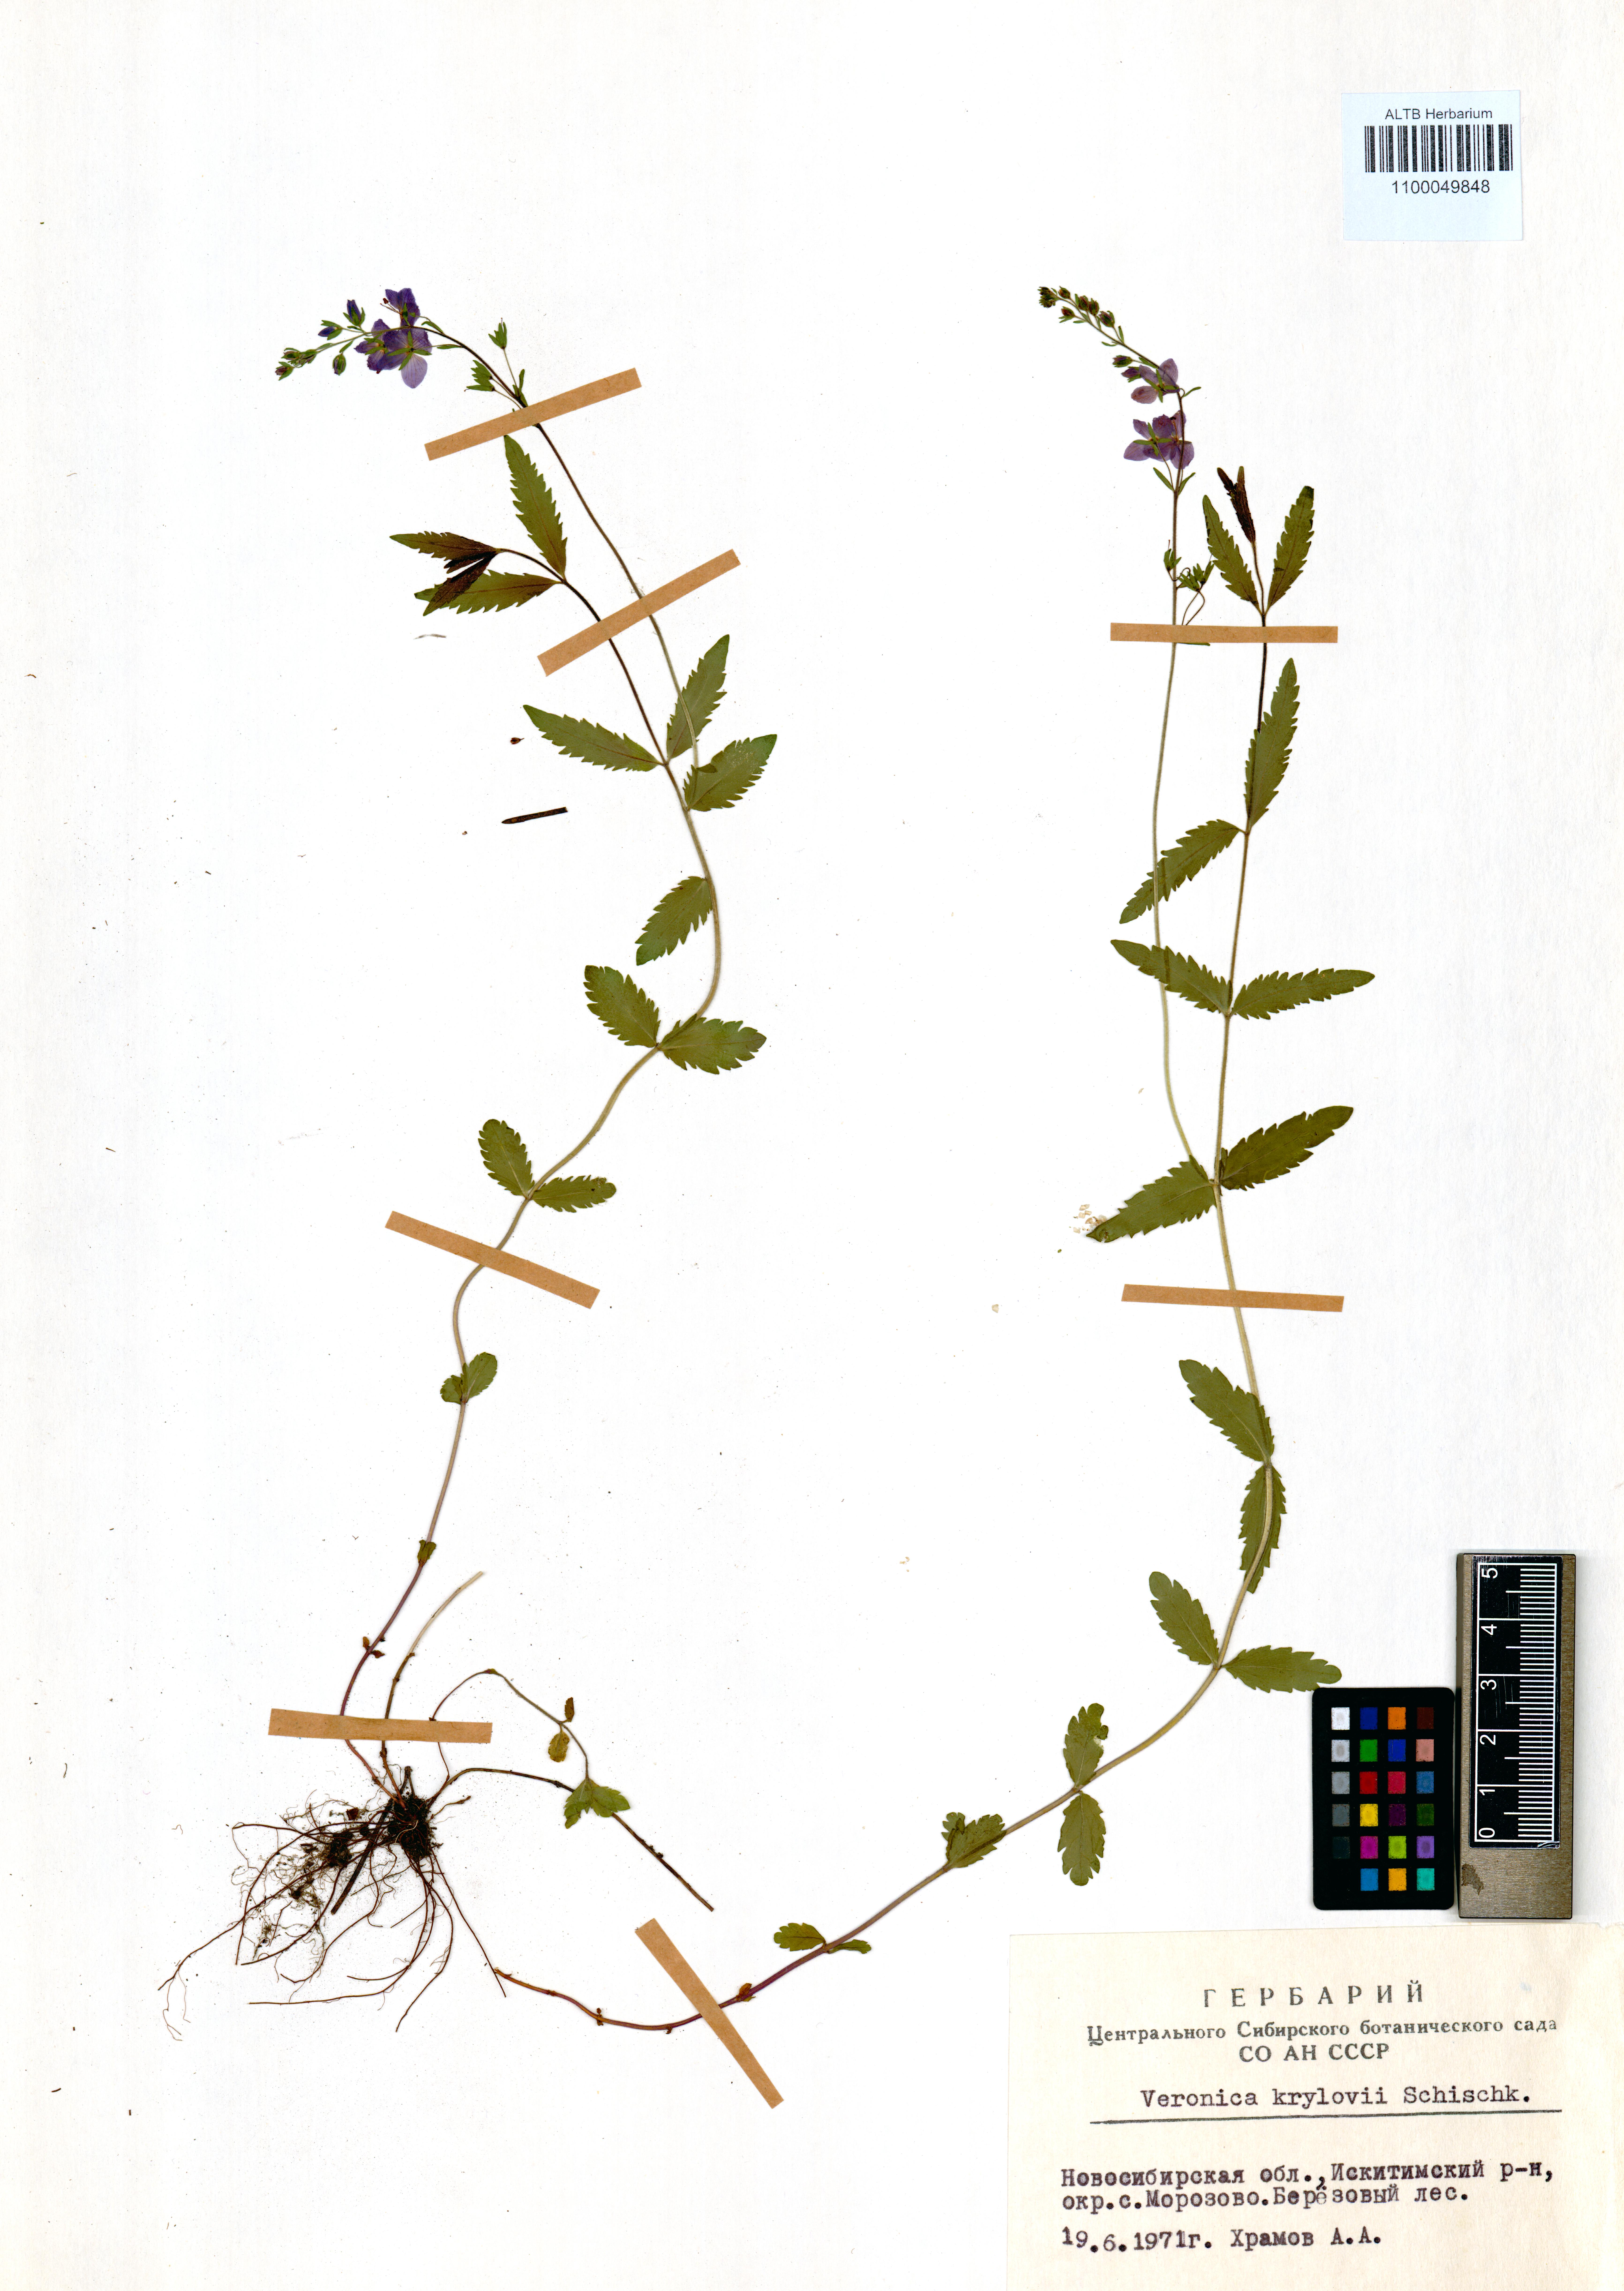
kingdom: Plantae
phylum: Tracheophyta
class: Magnoliopsida
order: Lamiales
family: Plantaginaceae
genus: Veronica
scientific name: Veronica krylovii
